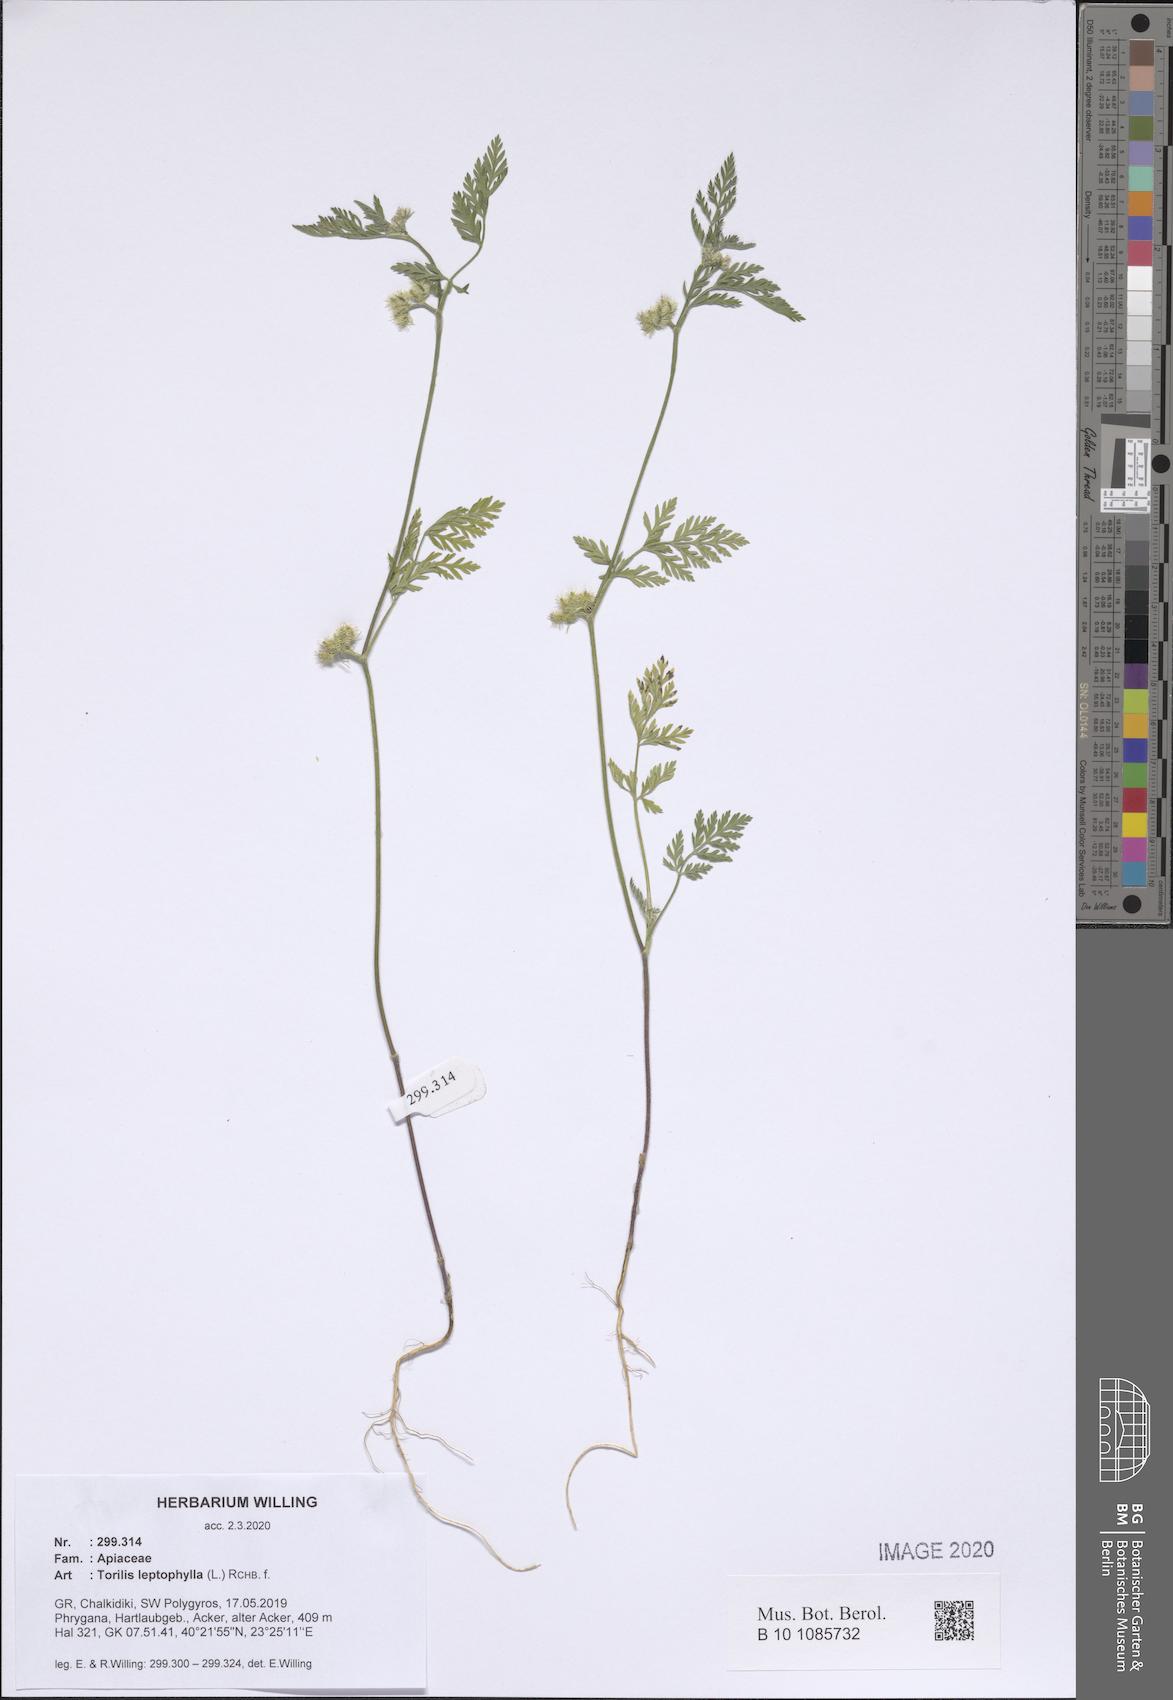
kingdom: Plantae
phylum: Tracheophyta
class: Magnoliopsida
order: Apiales
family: Apiaceae
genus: Torilis
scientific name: Torilis leptophylla
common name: Bristlefruit hedgeparsley
